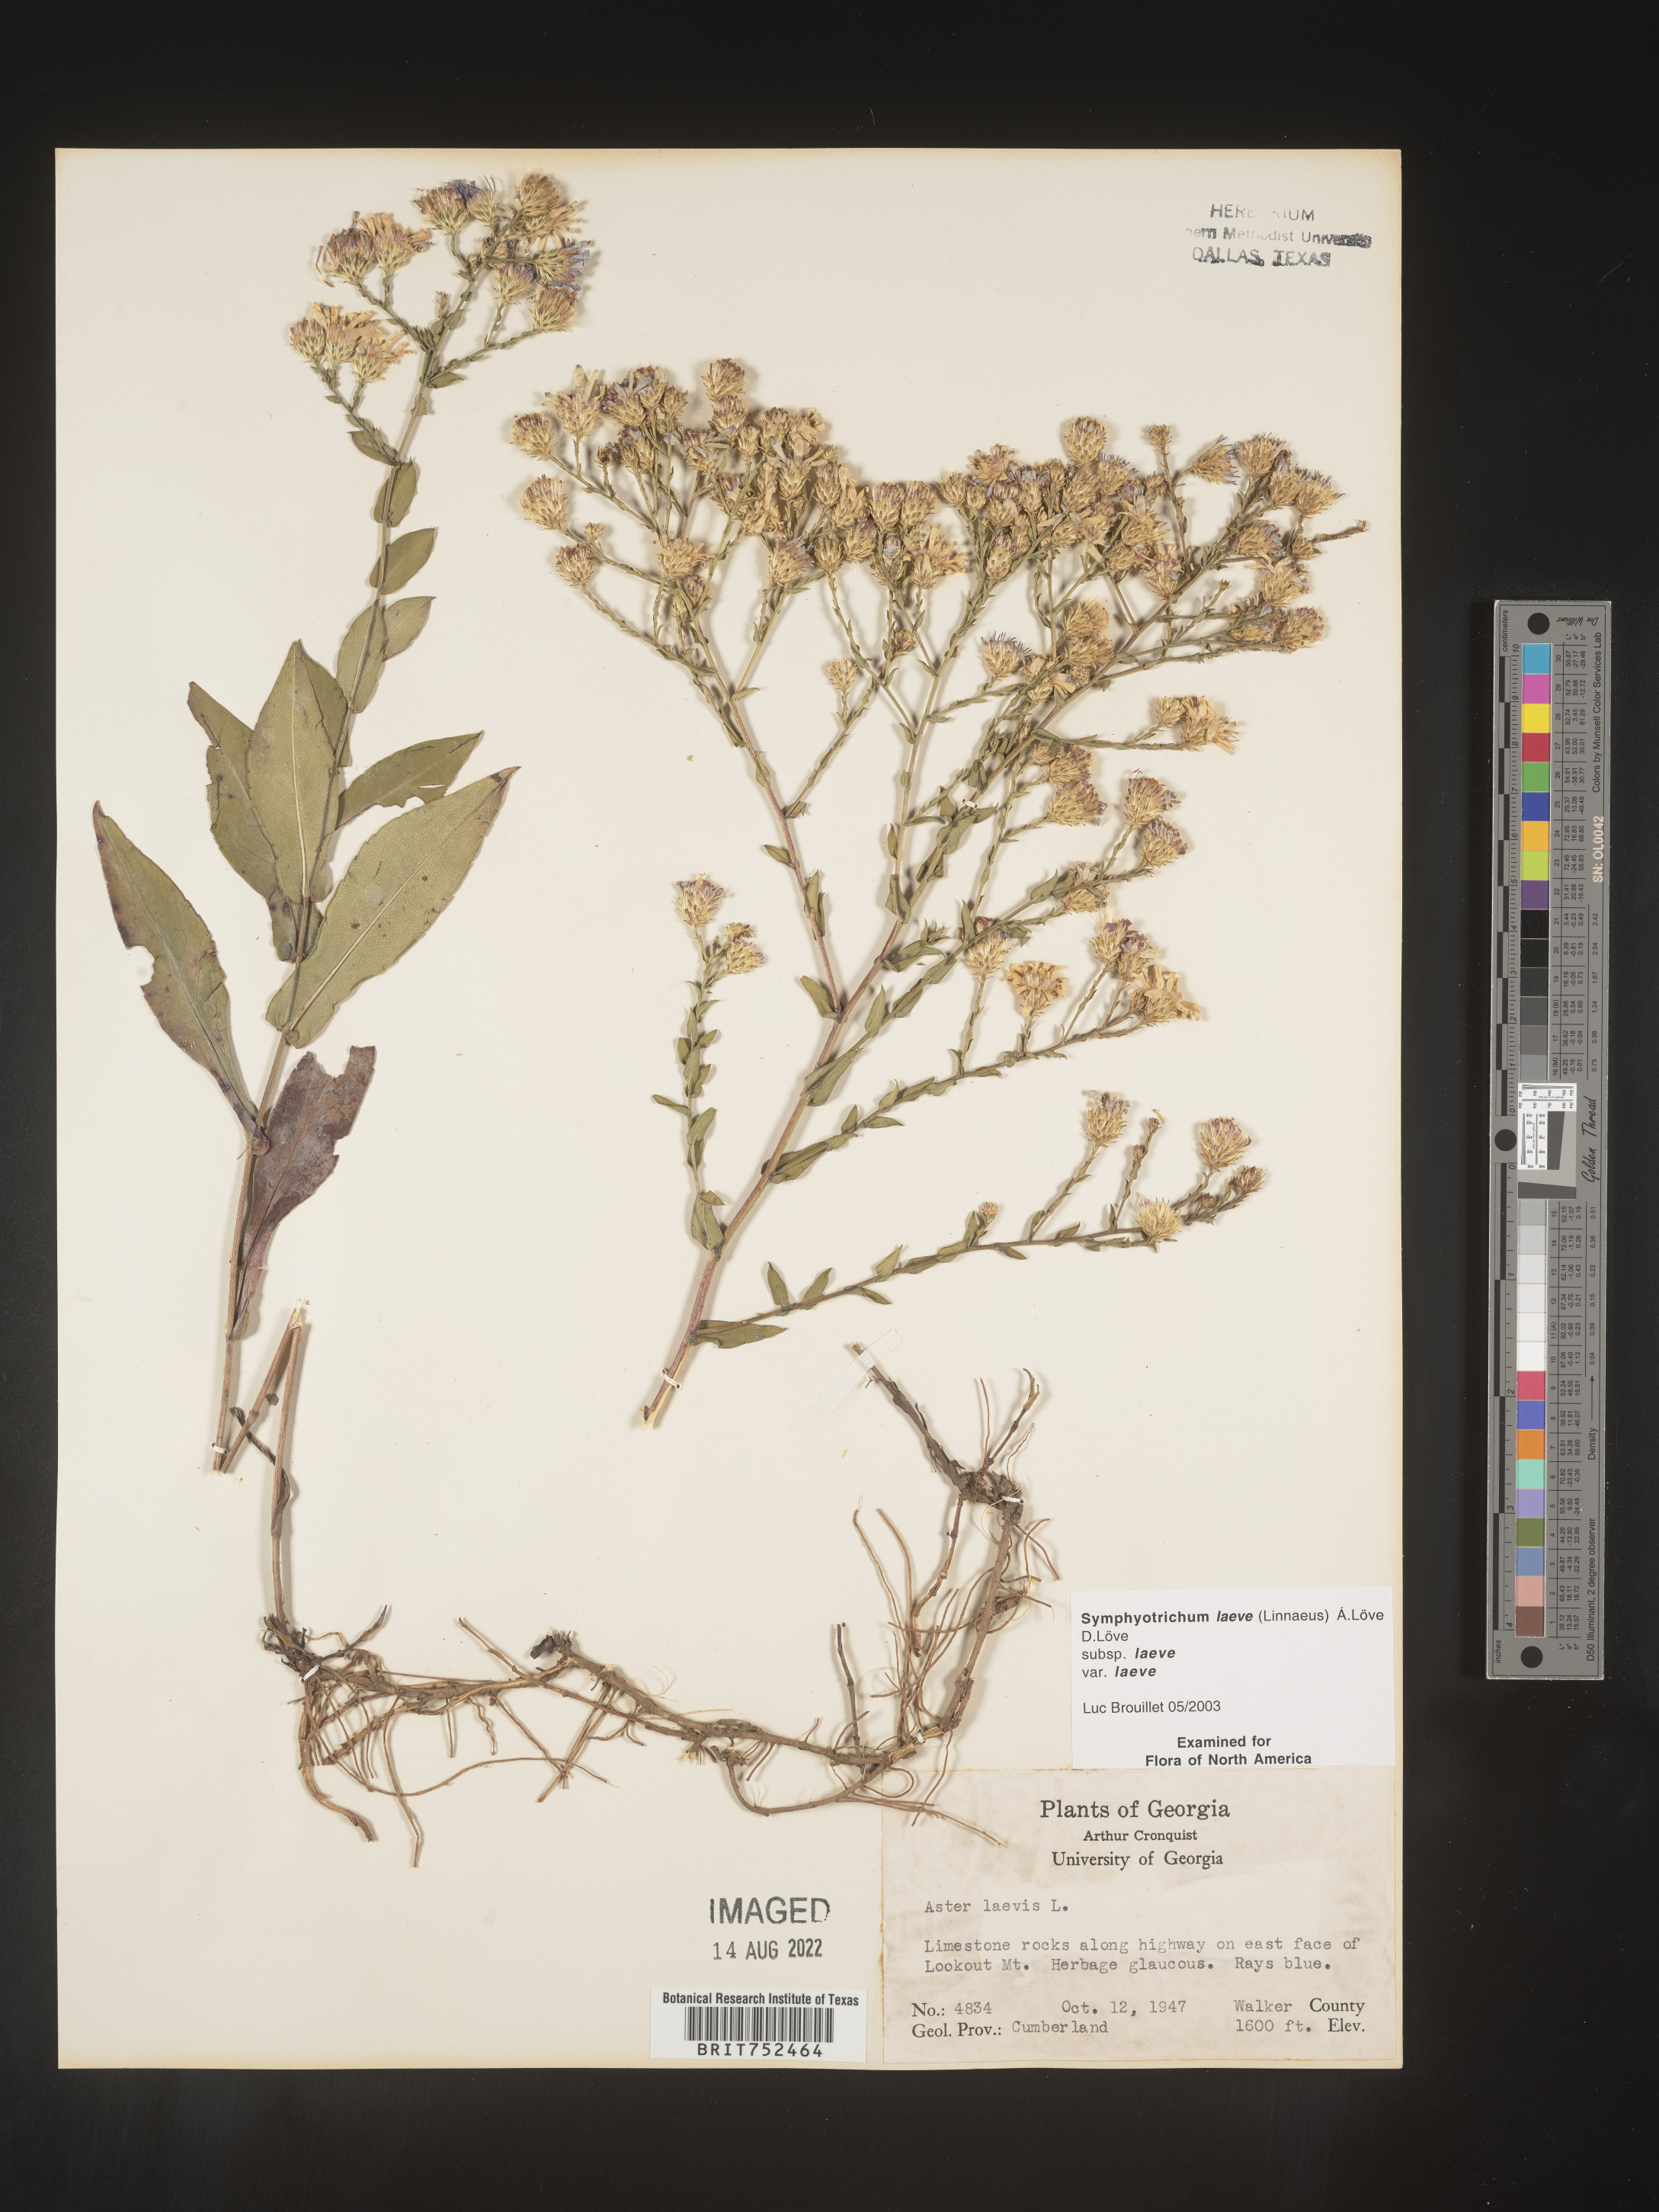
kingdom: Plantae
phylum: Tracheophyta
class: Magnoliopsida
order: Asterales
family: Asteraceae
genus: Symphyotrichum
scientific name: Symphyotrichum laeve
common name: Glaucous aster
